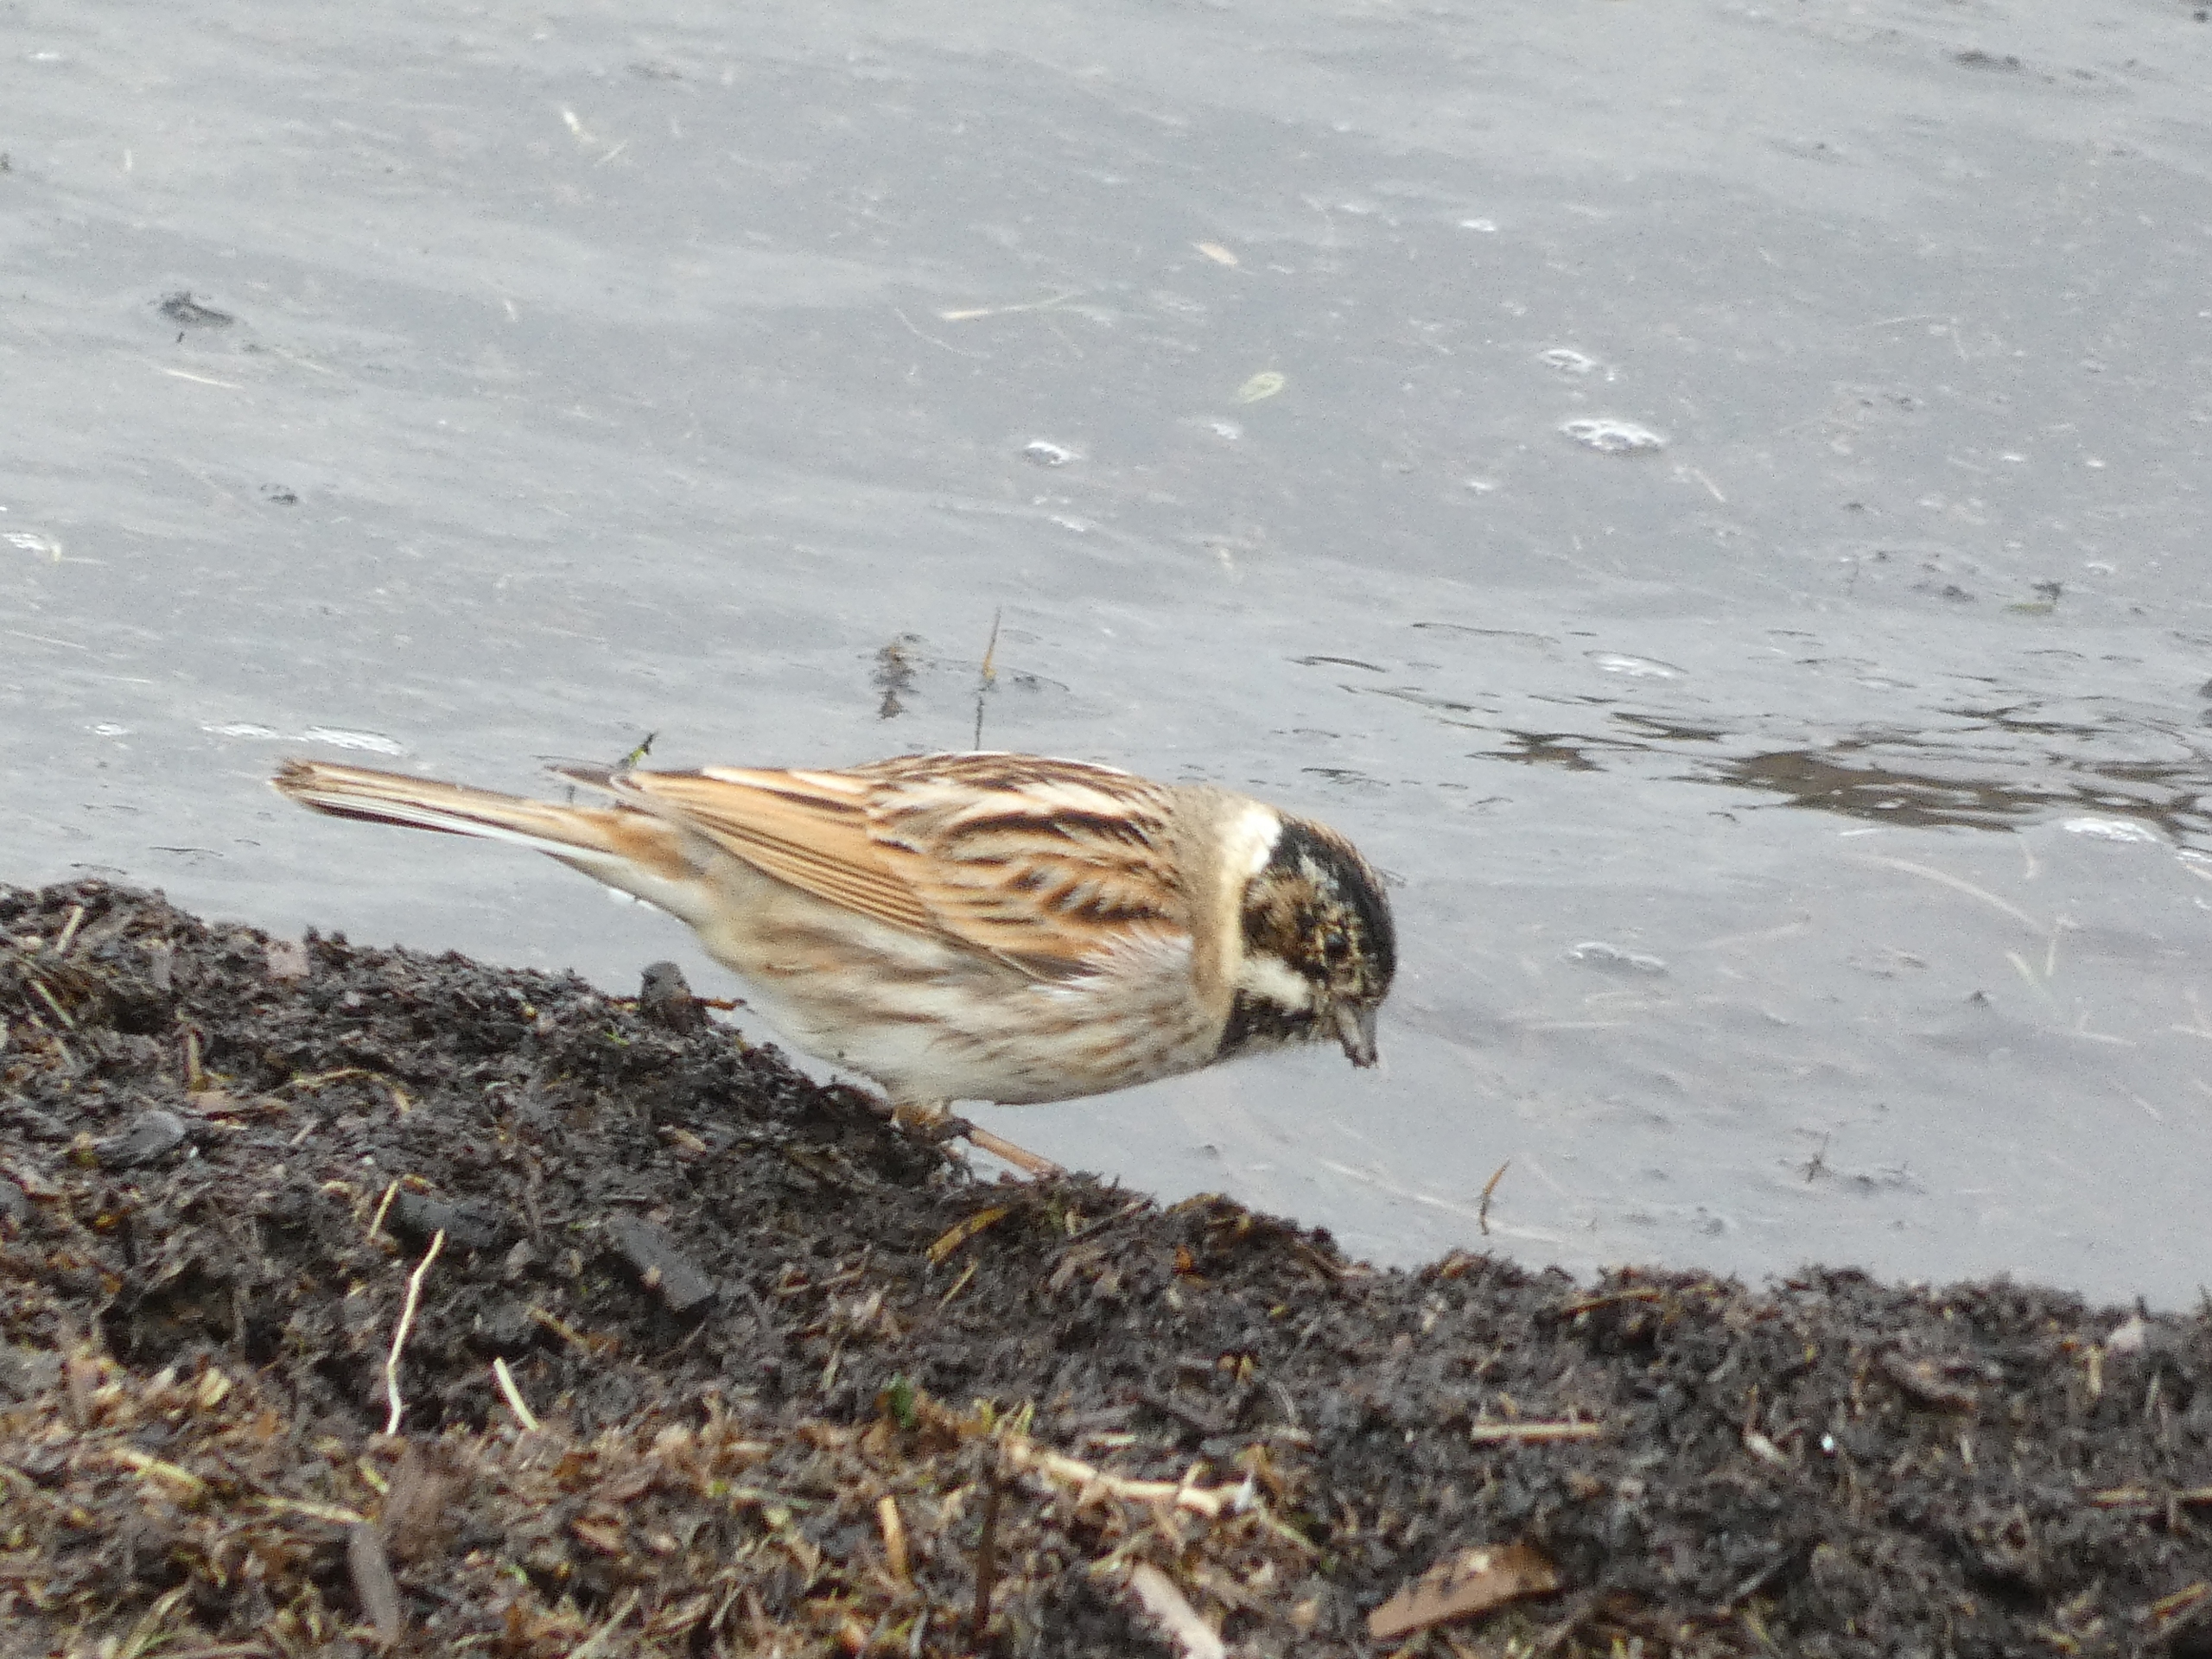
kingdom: Animalia
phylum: Chordata
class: Aves
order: Passeriformes
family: Emberizidae
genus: Emberiza
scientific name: Emberiza schoeniclus
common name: Rørspurv
